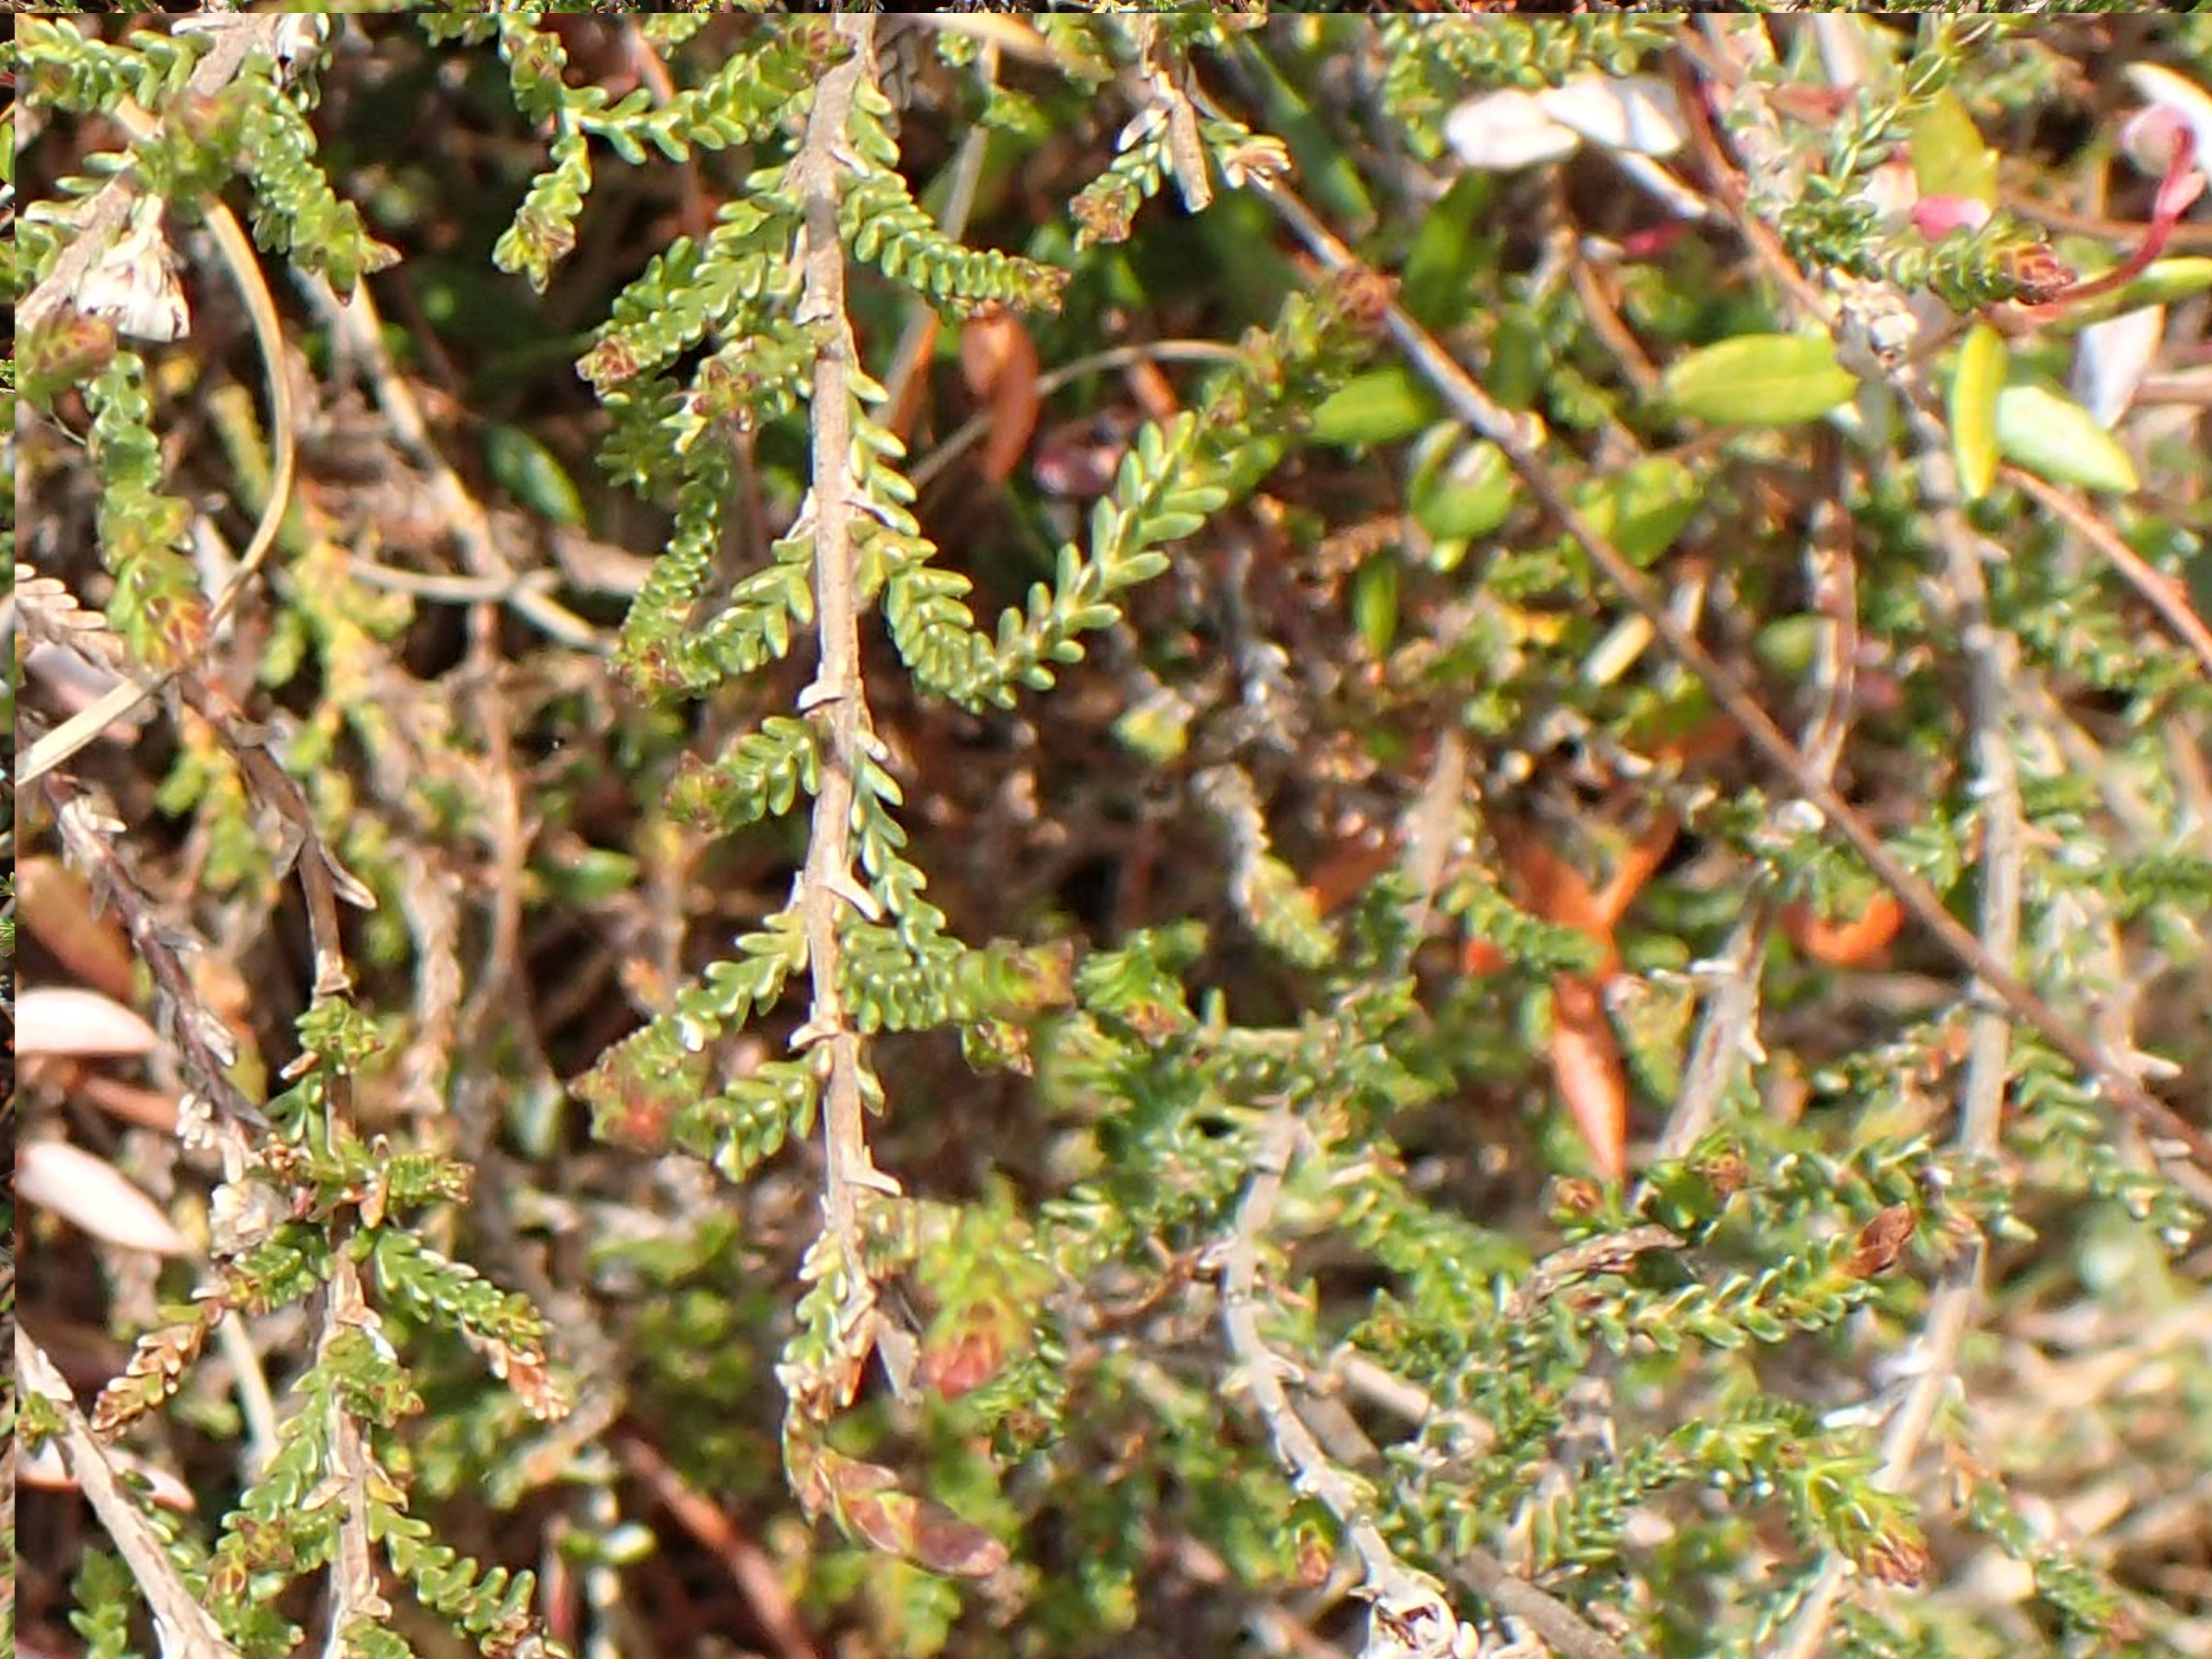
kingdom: Plantae
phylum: Tracheophyta
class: Magnoliopsida
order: Ericales
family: Ericaceae
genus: Empetrum
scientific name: Empetrum nigrum
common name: Revling
